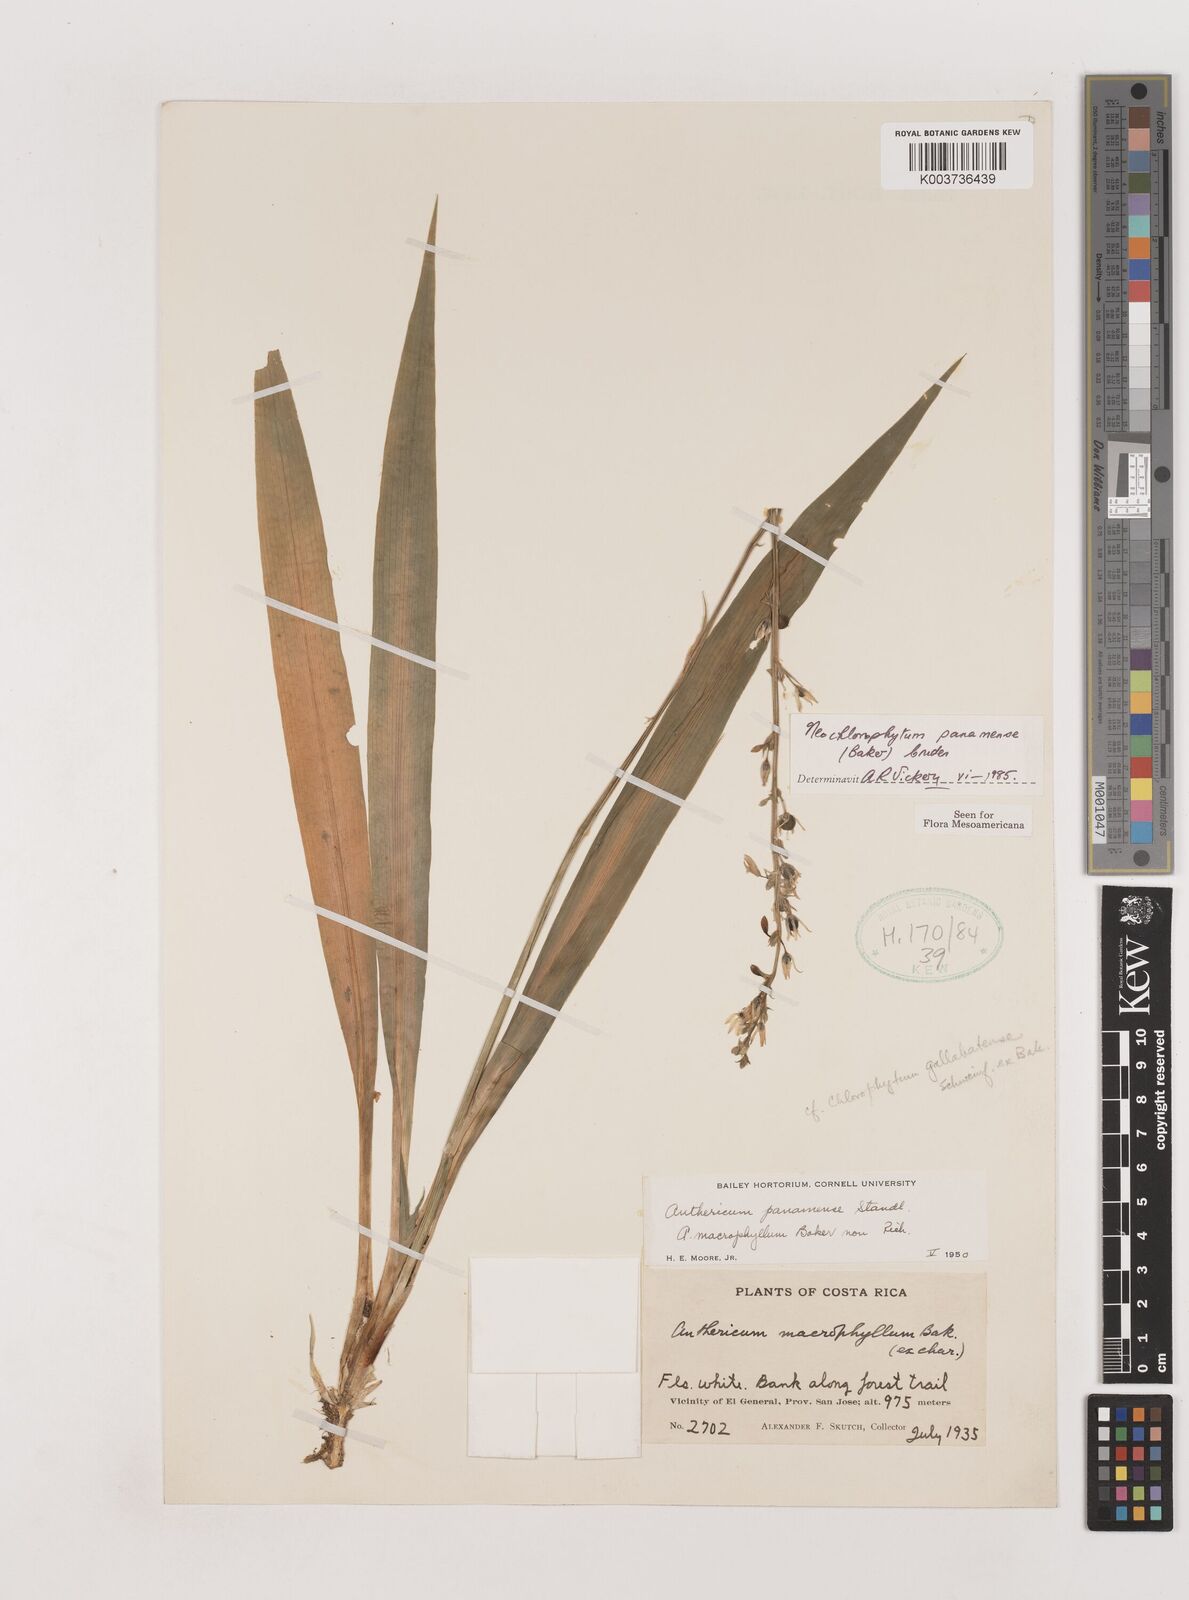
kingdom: Plantae
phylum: Tracheophyta
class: Liliopsida
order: Asparagales
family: Asparagaceae
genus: Hagenbachia
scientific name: Hagenbachia panamensis
